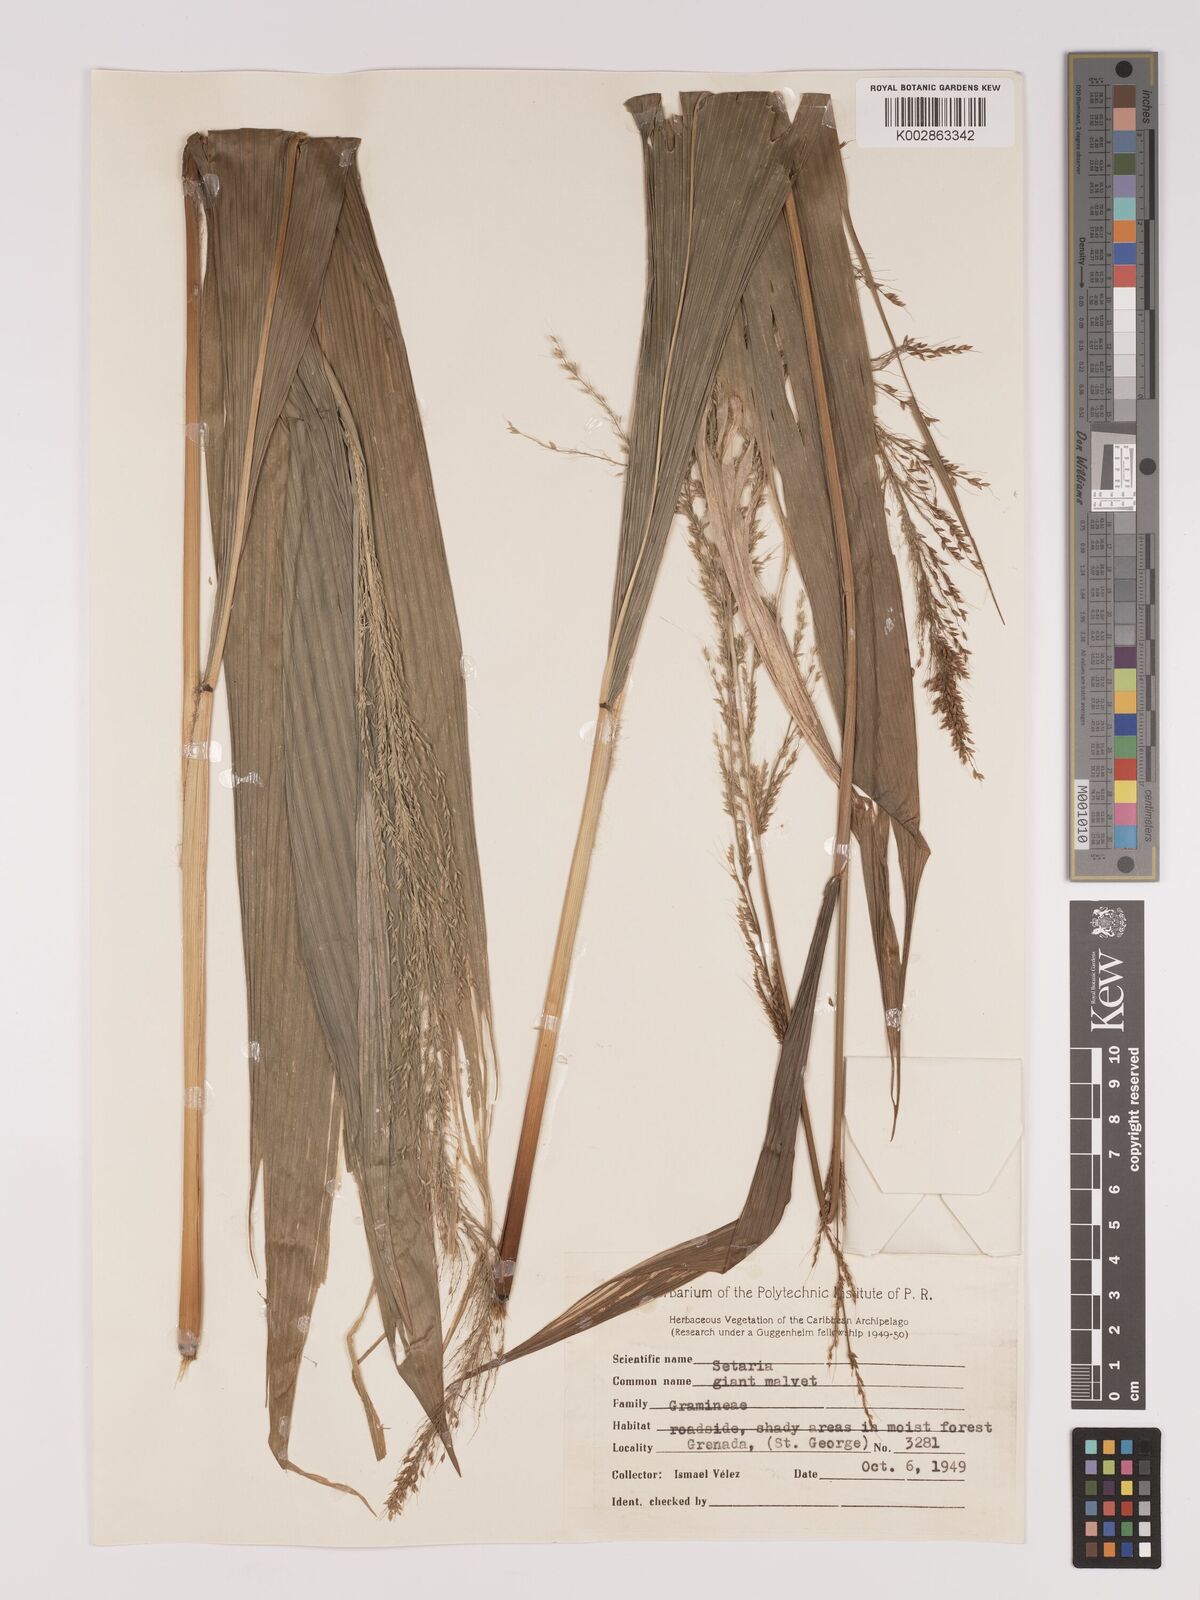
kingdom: Plantae
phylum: Tracheophyta
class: Liliopsida
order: Poales
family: Poaceae
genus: Setaria
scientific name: Setaria palmifolia
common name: Broadleaved bristlegrass
